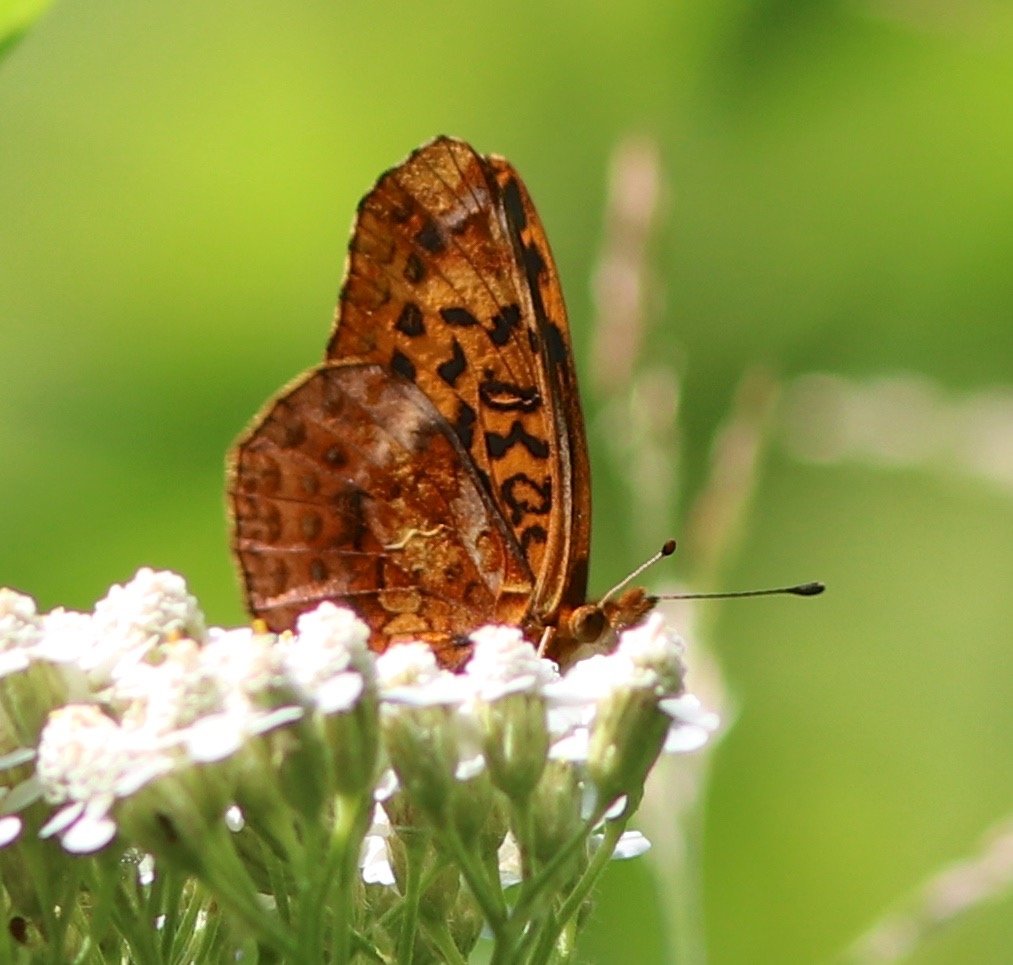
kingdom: Animalia
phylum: Arthropoda
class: Insecta
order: Lepidoptera
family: Nymphalidae
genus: Clossiana
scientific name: Clossiana toddi
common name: Meadow Fritillary
